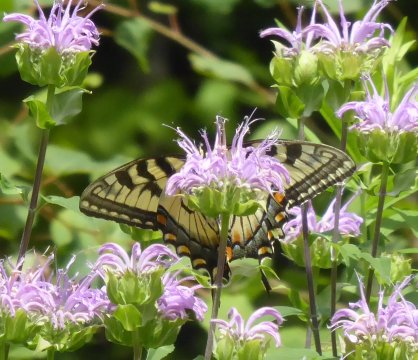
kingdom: Animalia
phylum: Arthropoda
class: Insecta
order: Lepidoptera
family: Papilionidae
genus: Pterourus
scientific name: Pterourus
